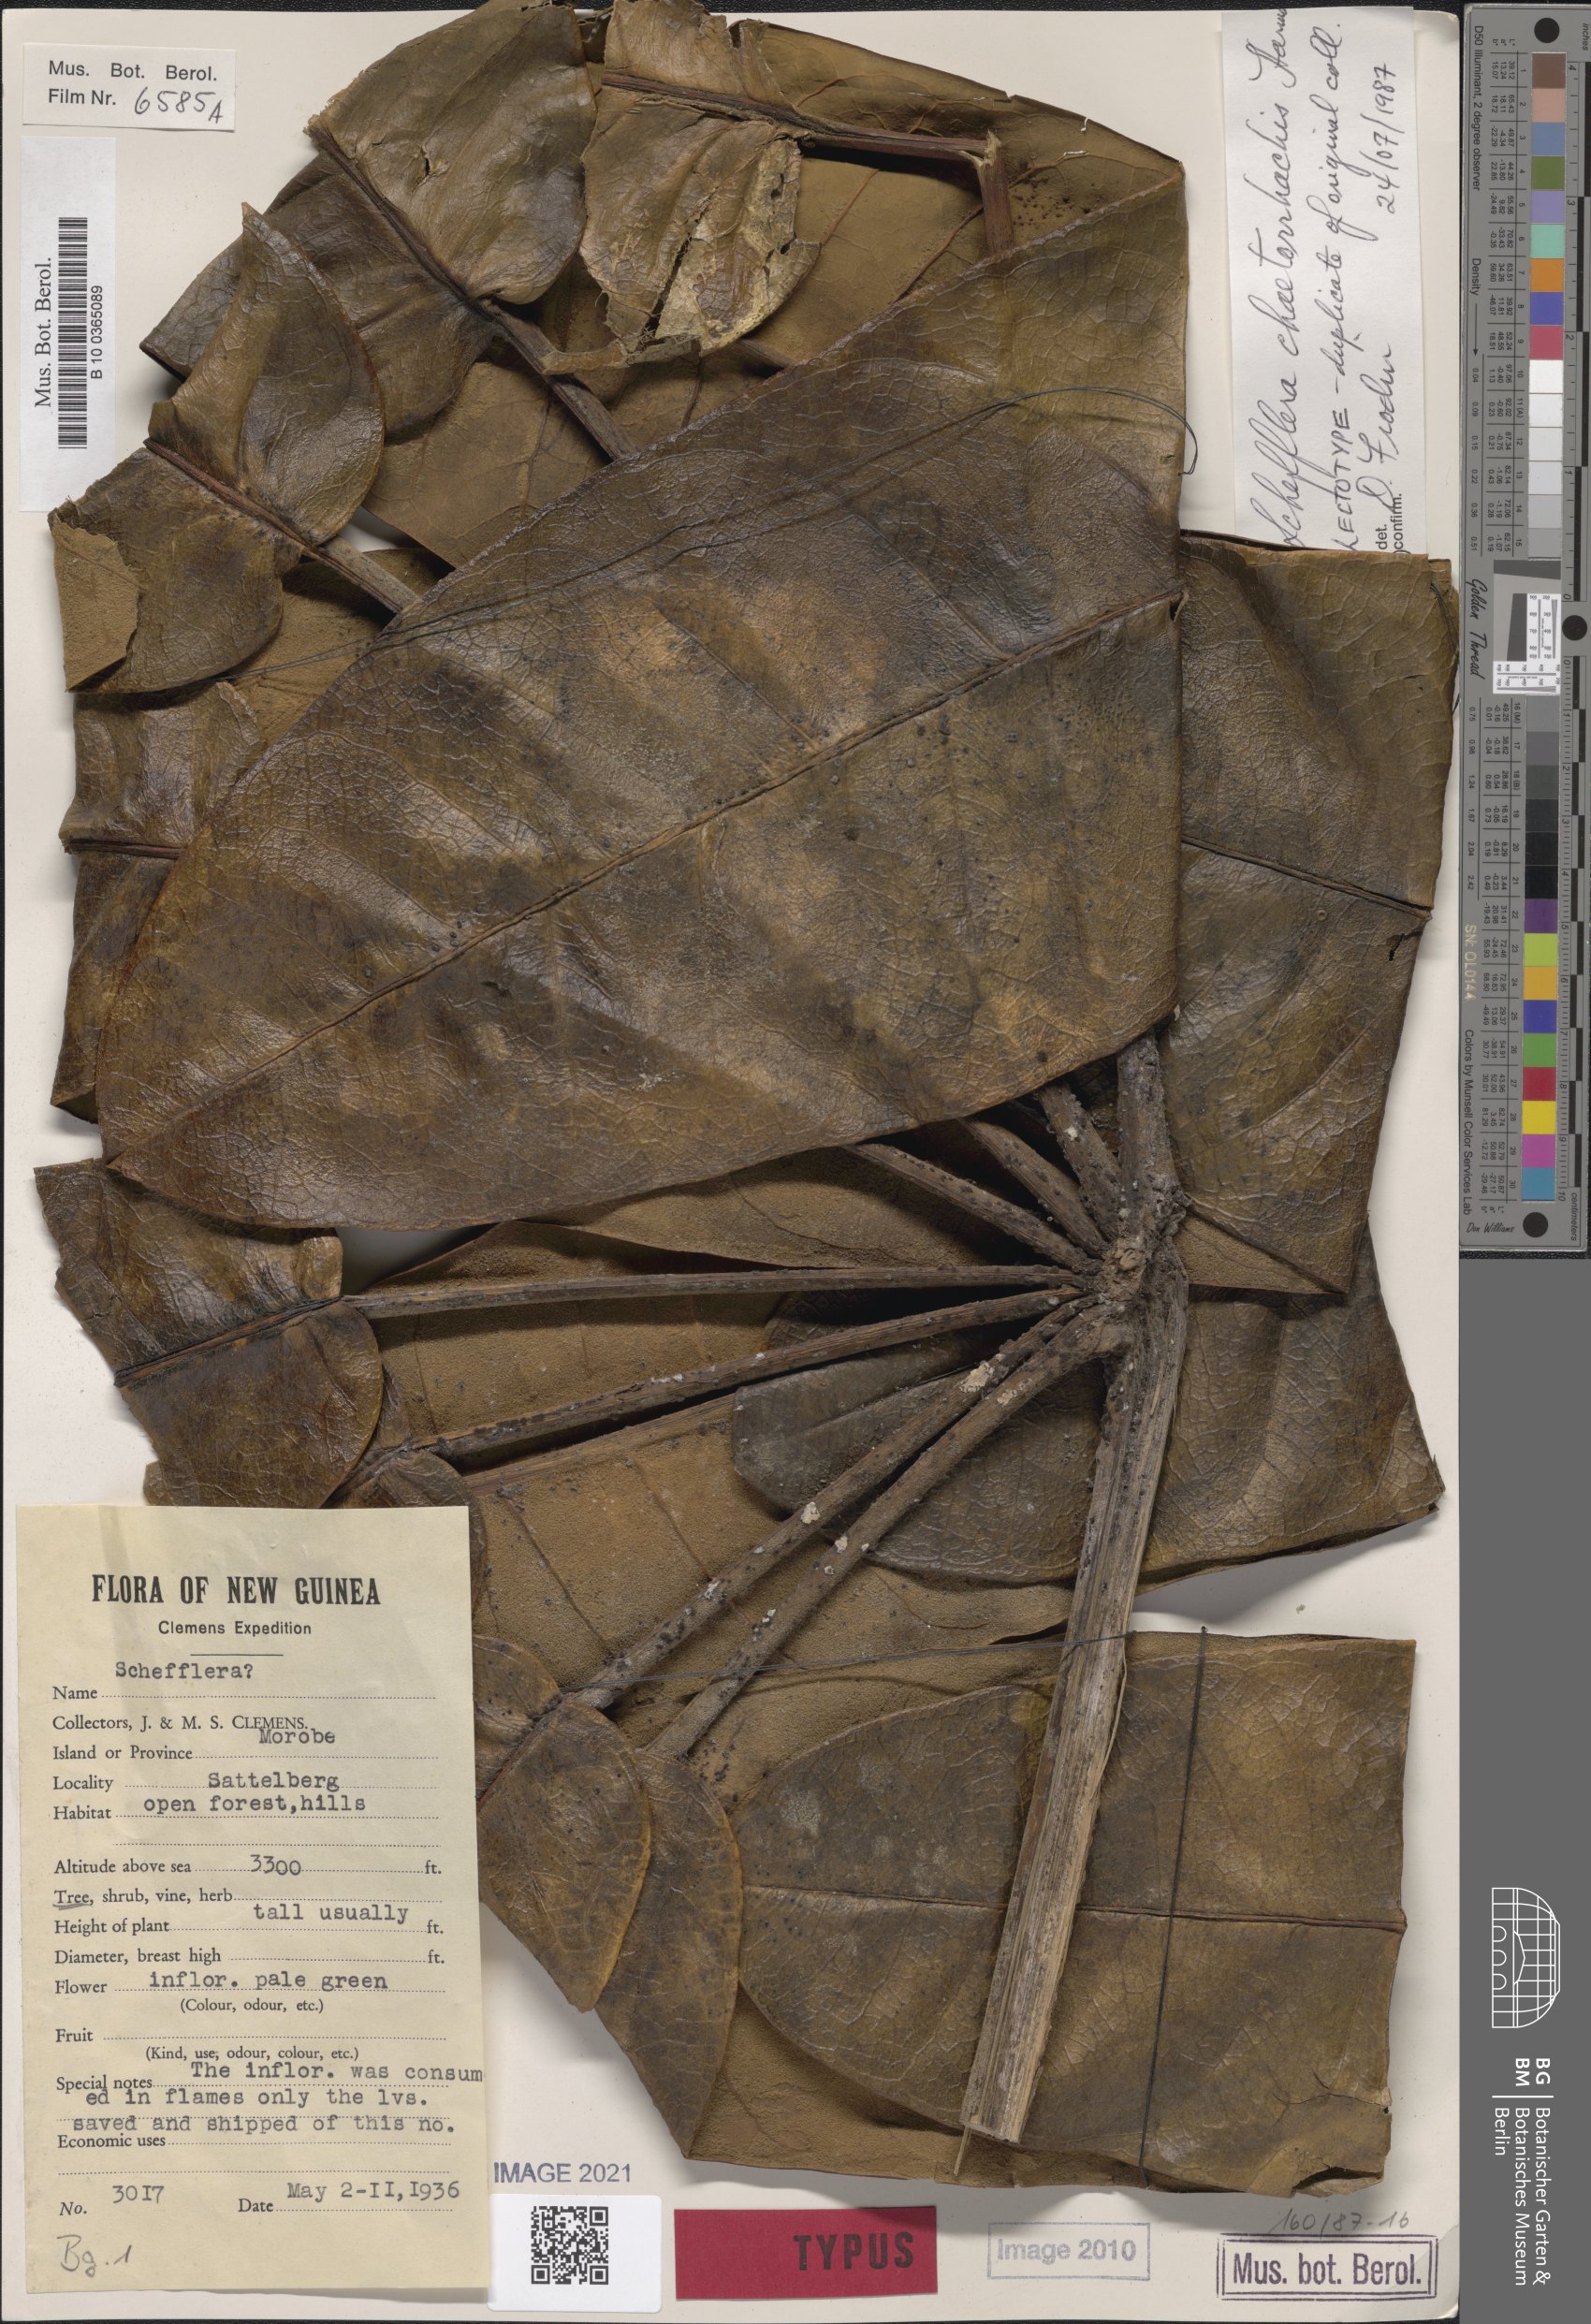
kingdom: Plantae
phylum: Tracheophyta
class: Magnoliopsida
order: Apiales
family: Araliaceae
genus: Heptapleurum
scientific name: Heptapleurum chaetorrhachis
